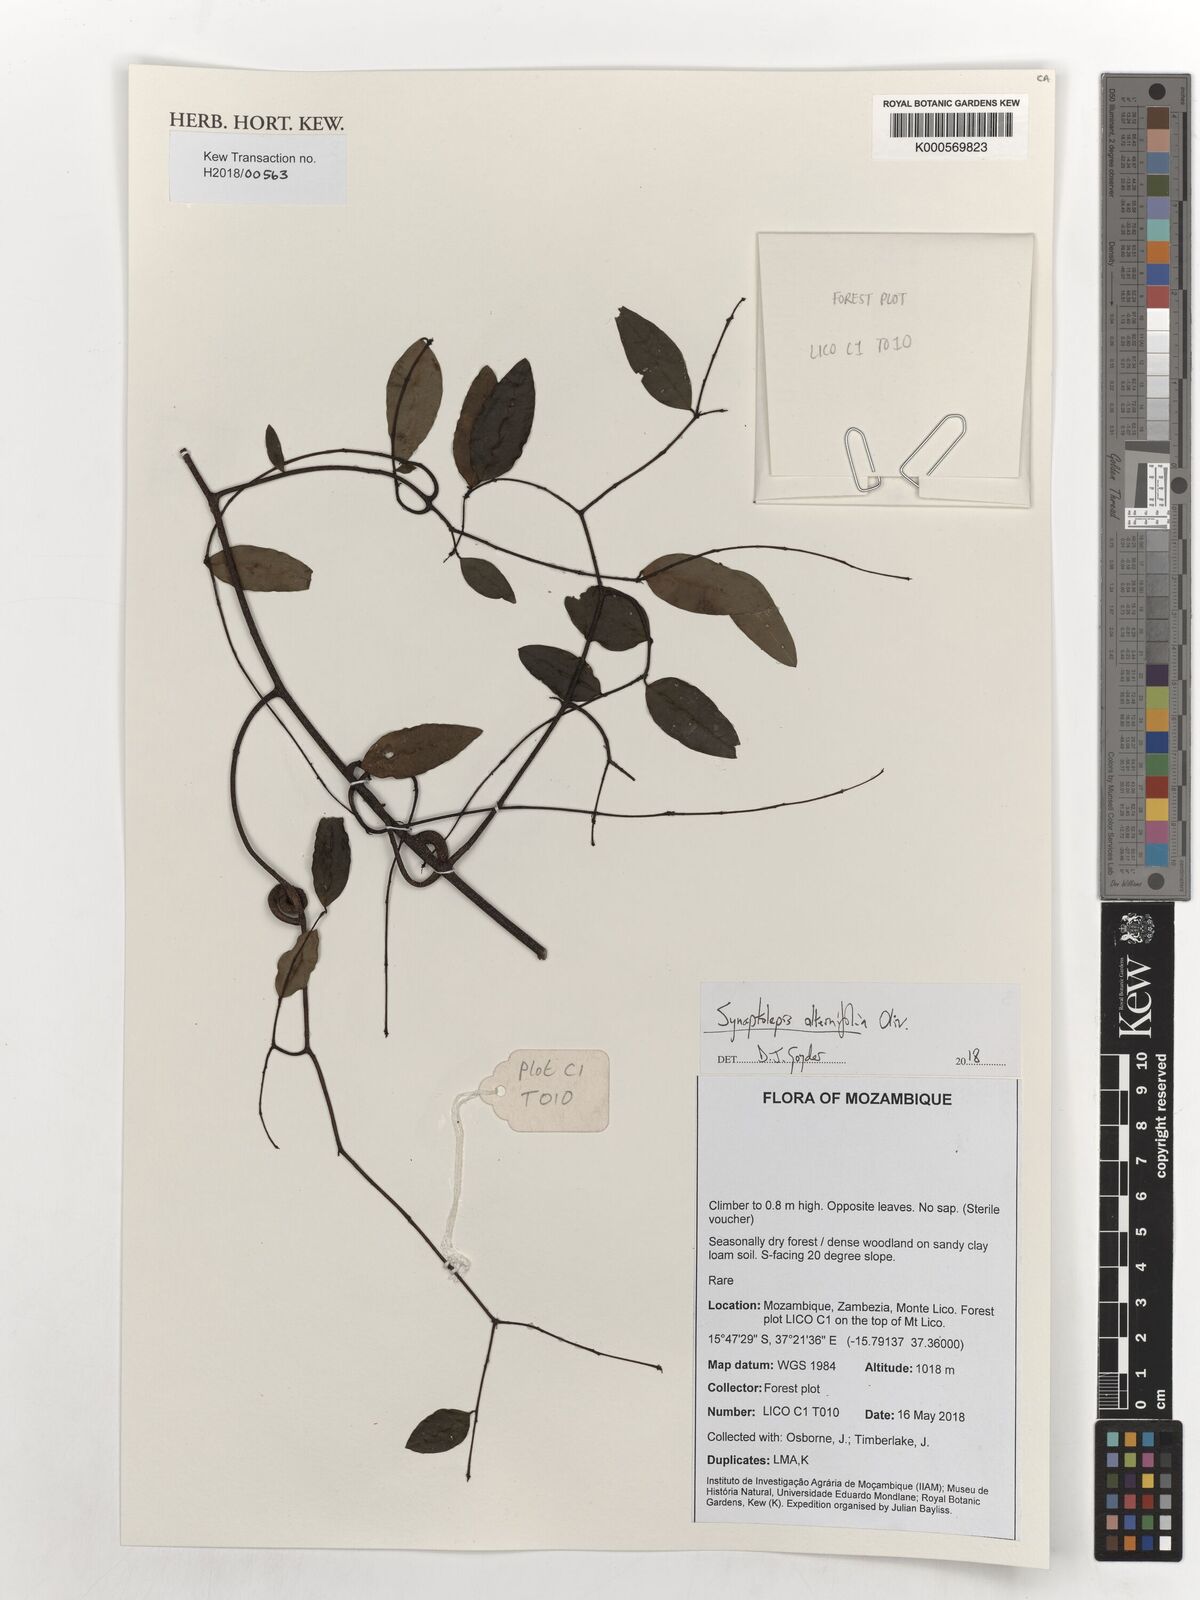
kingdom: Plantae
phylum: Tracheophyta
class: Magnoliopsida
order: Malvales
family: Thymelaeaceae
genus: Synaptolepis
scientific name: Synaptolepis alternifolia
